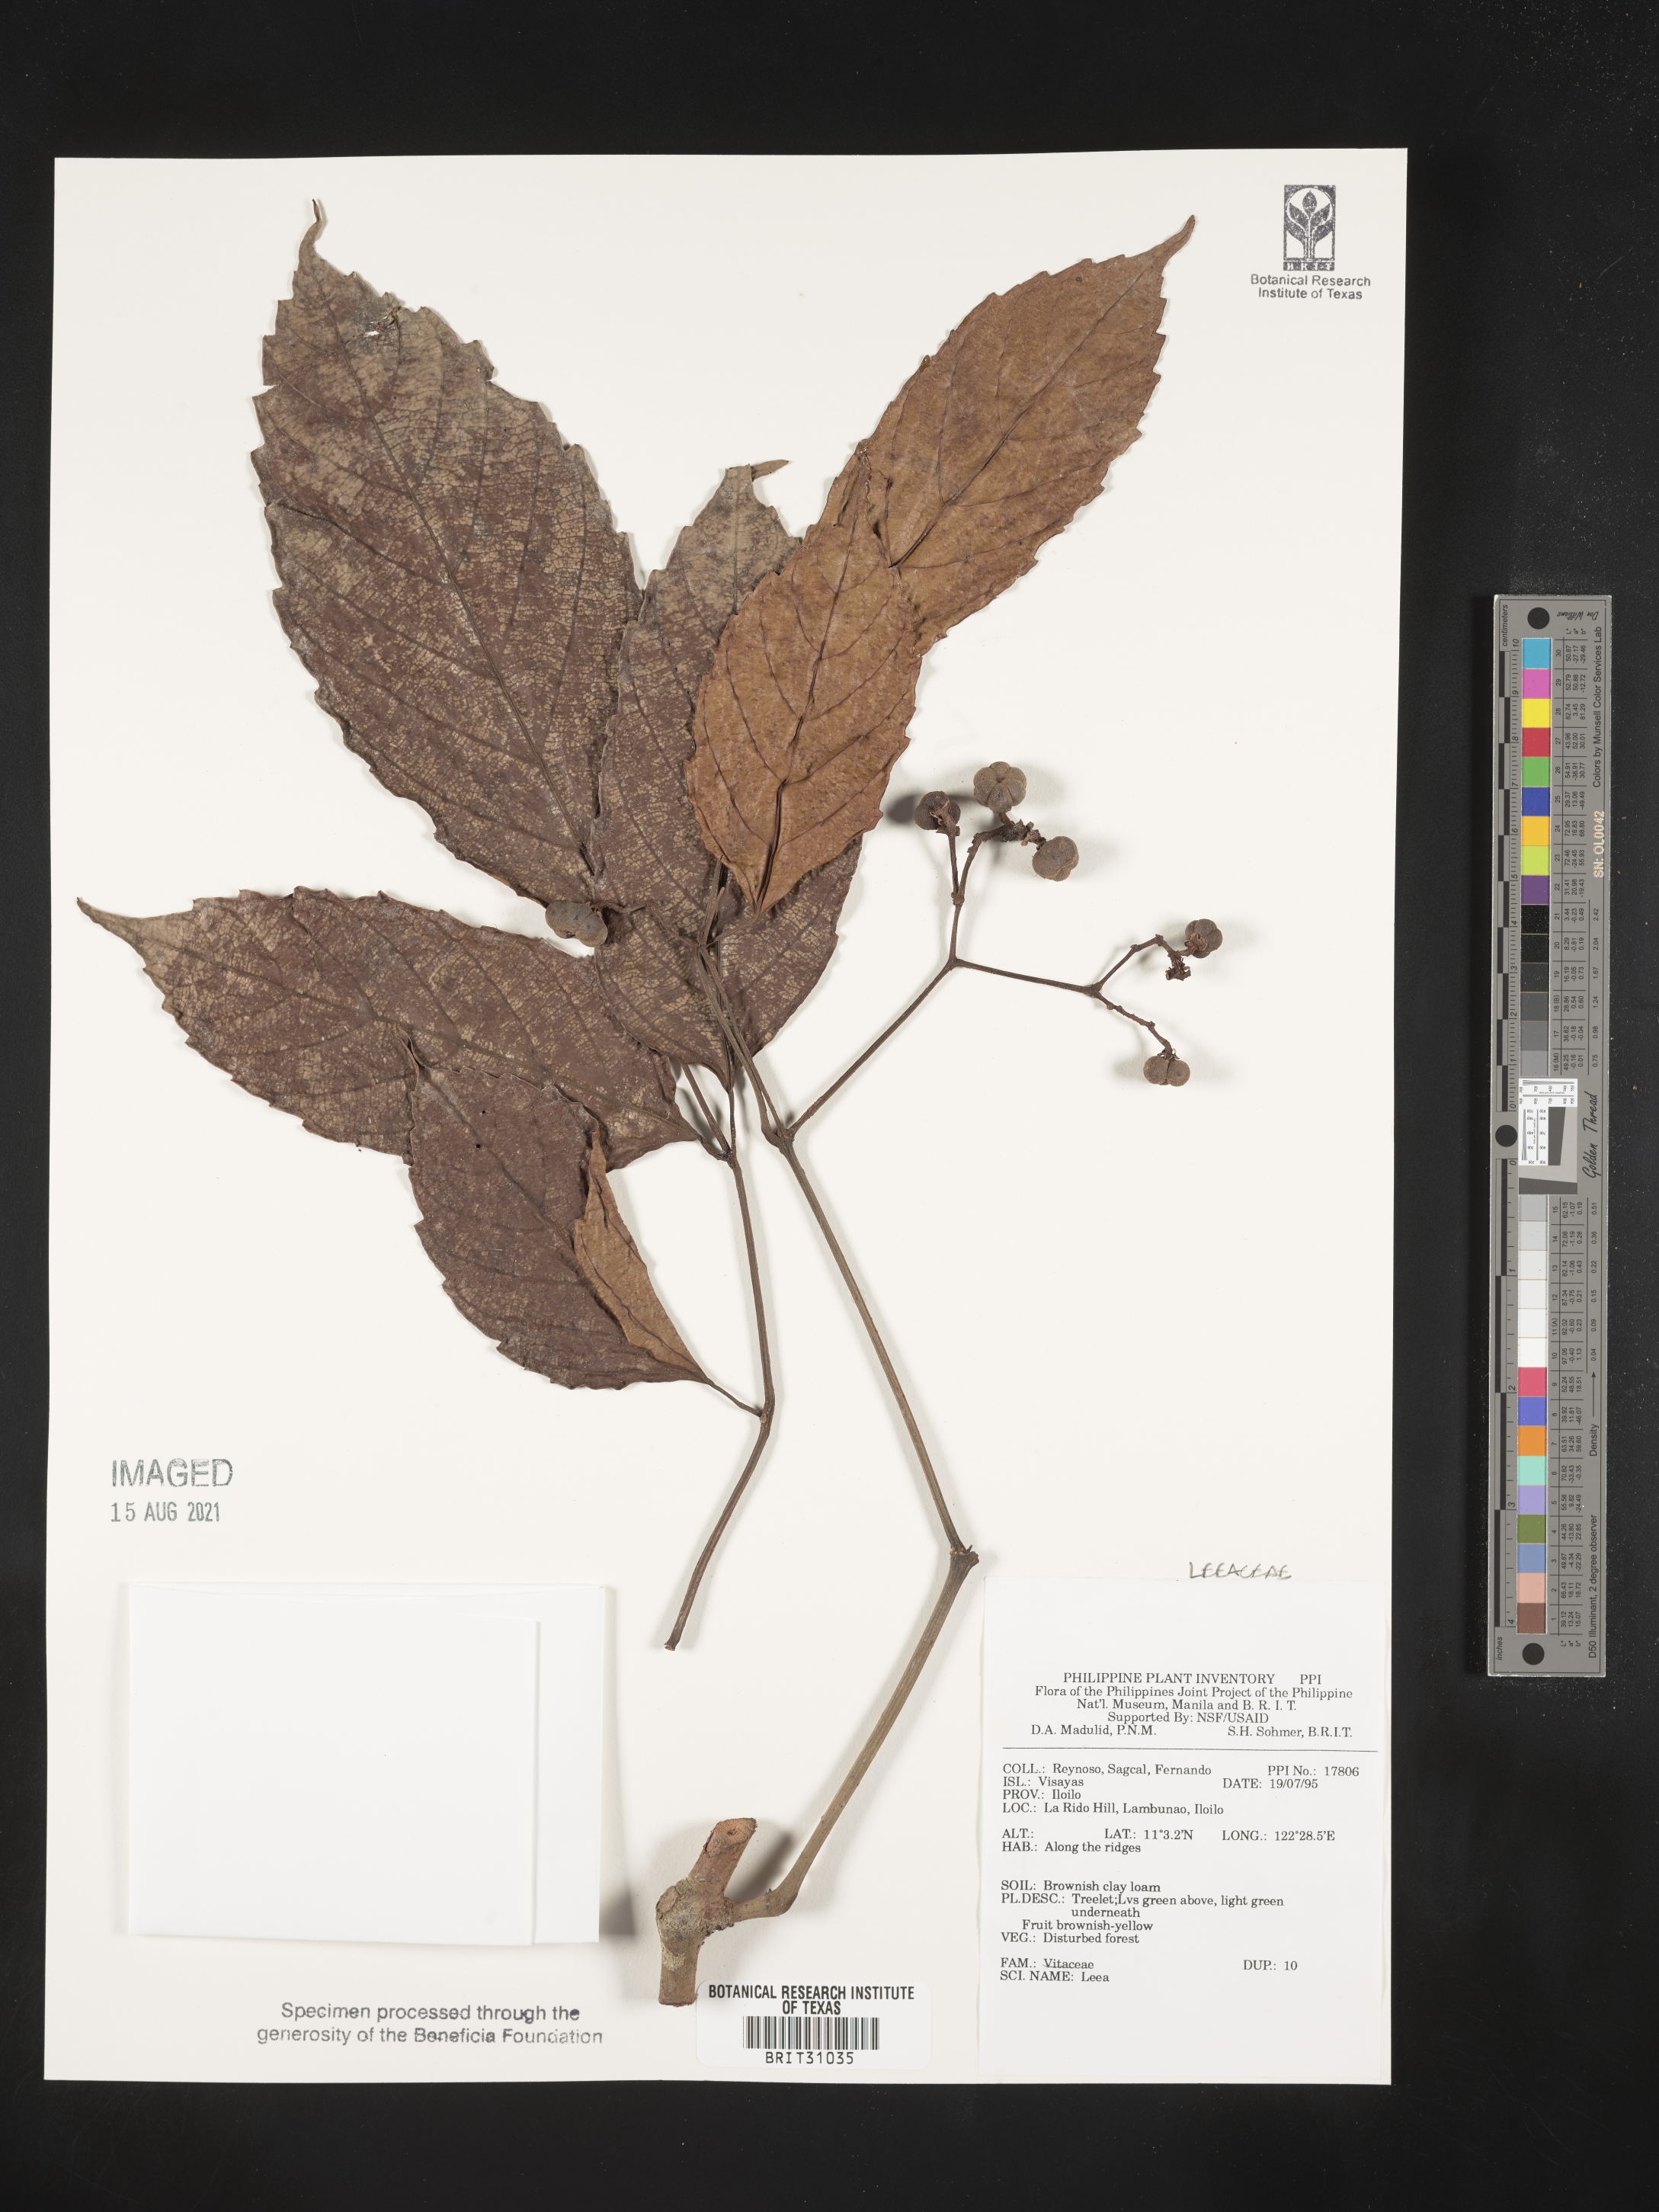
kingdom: Plantae
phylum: Tracheophyta
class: Magnoliopsida
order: Vitales
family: Vitaceae
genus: Leea
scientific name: Leea
